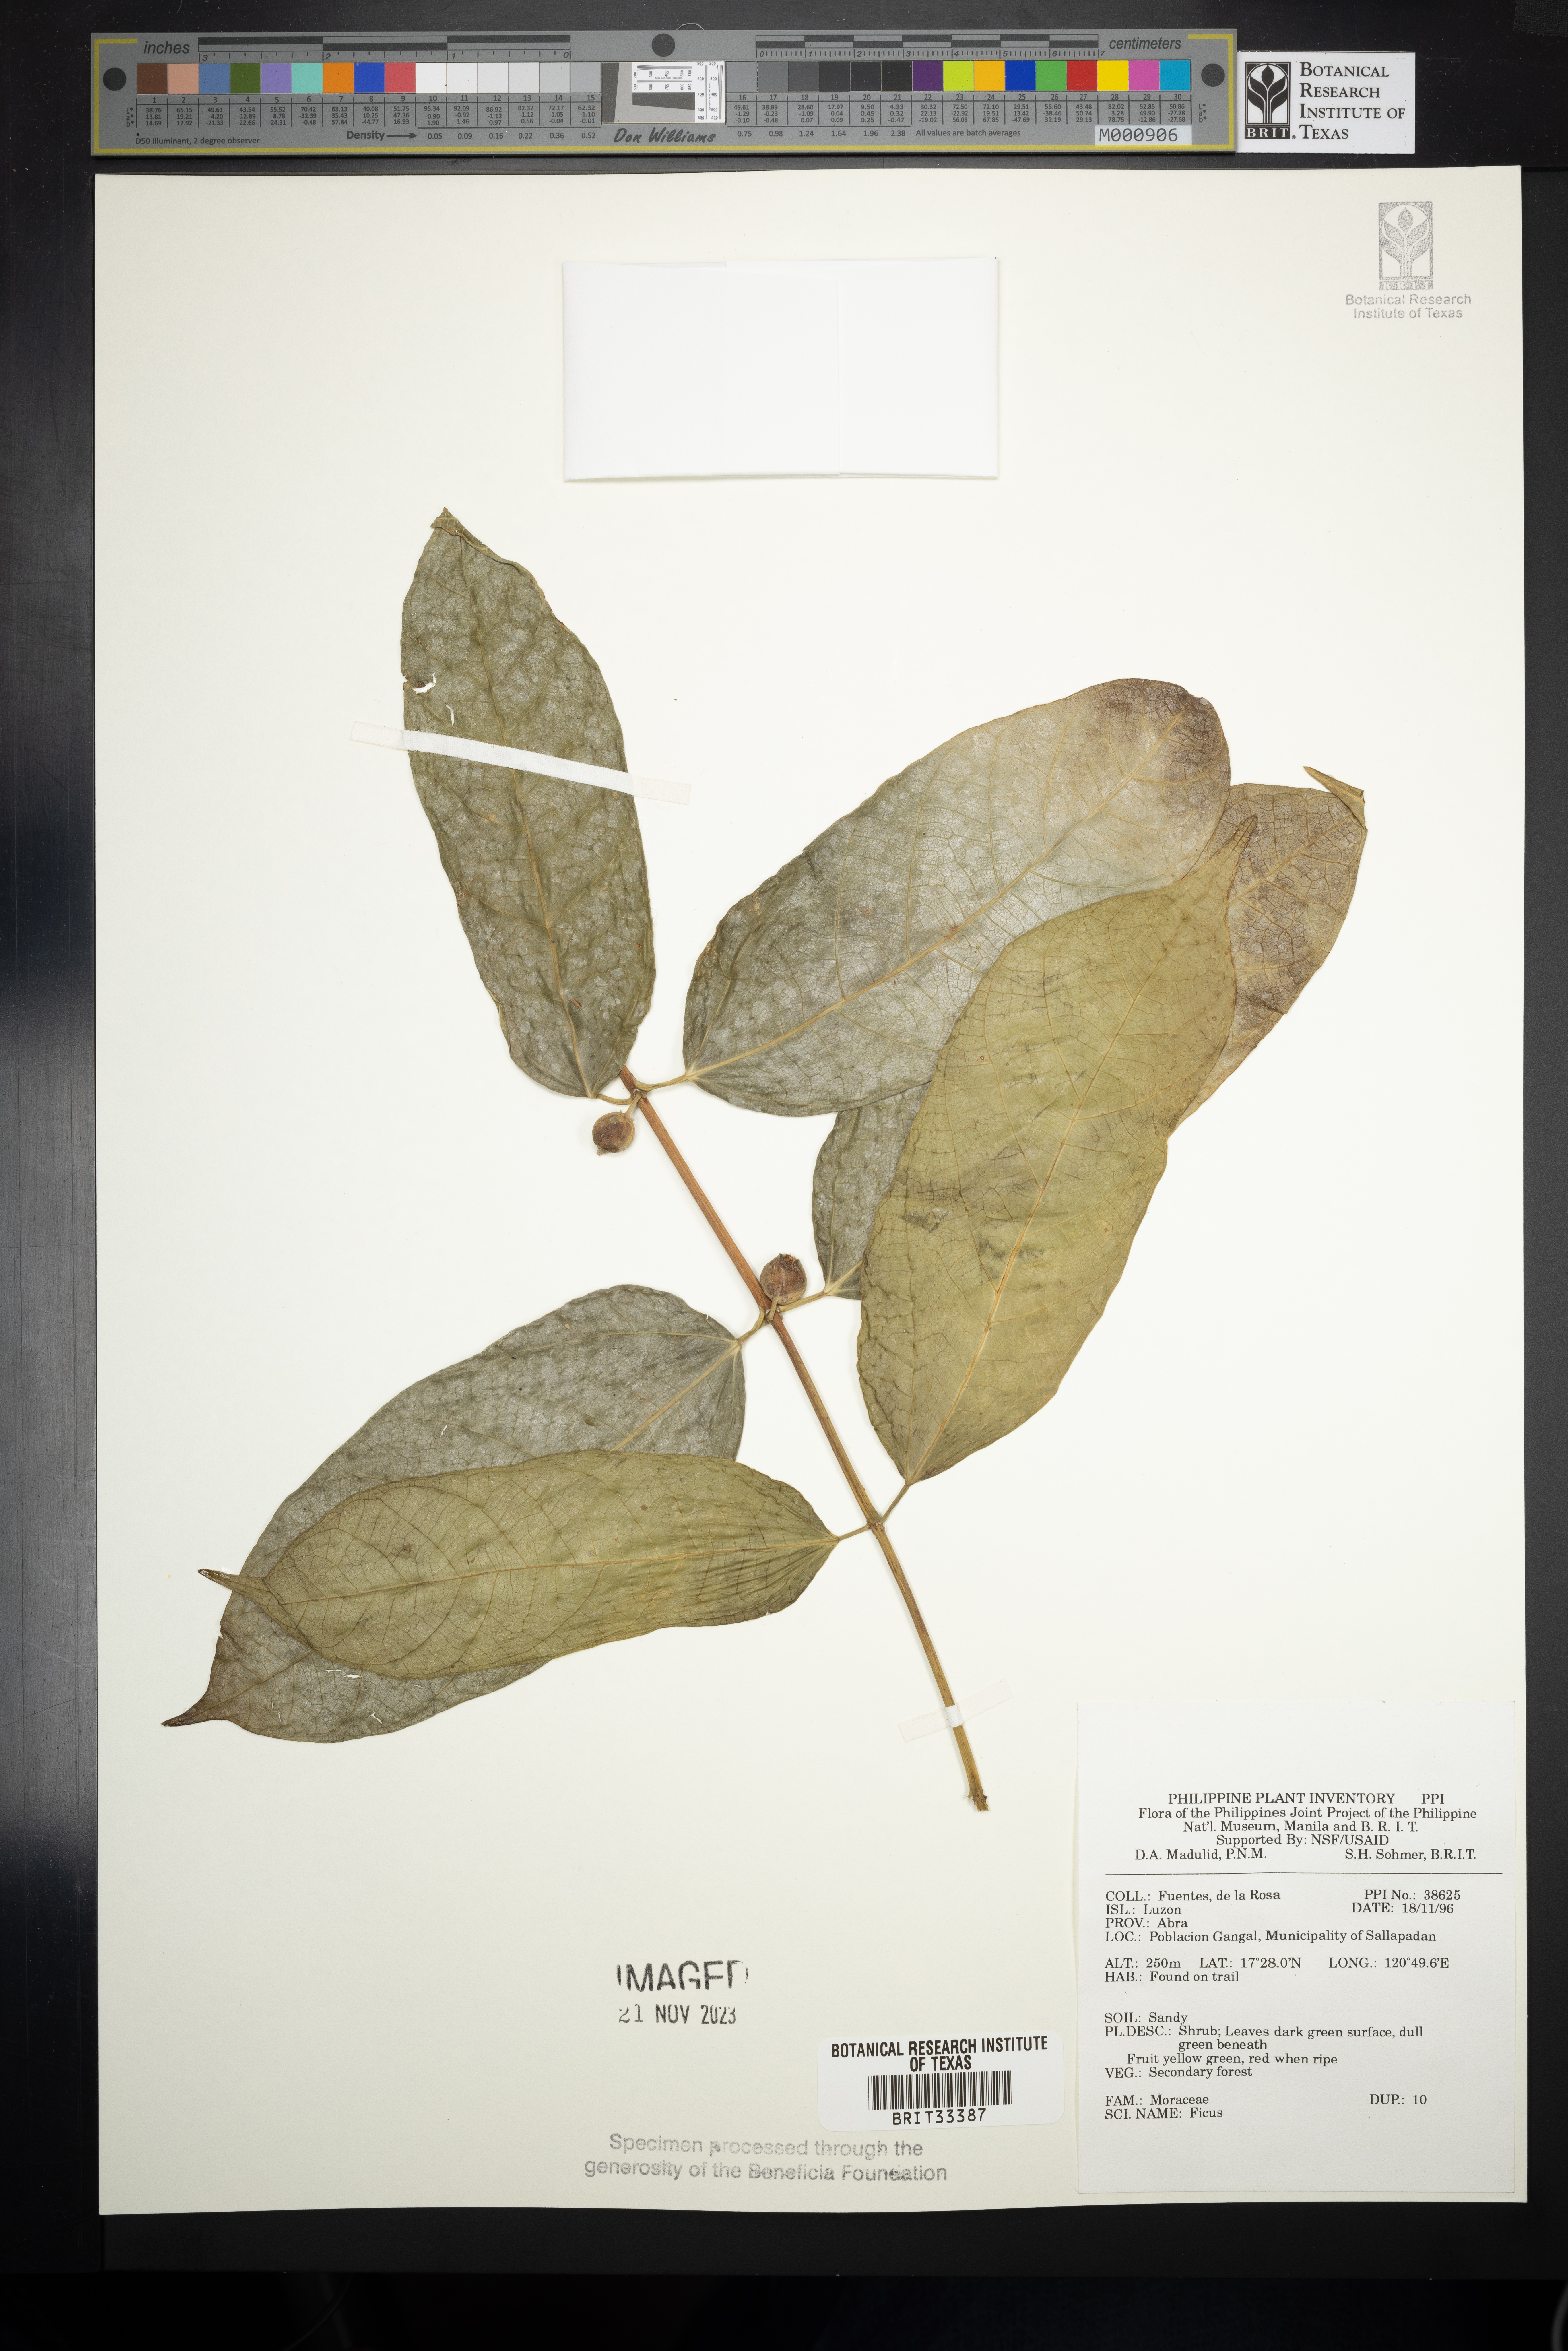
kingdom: Plantae
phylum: Tracheophyta
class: Magnoliopsida
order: Rosales
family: Moraceae
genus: Ficus
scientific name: Ficus
